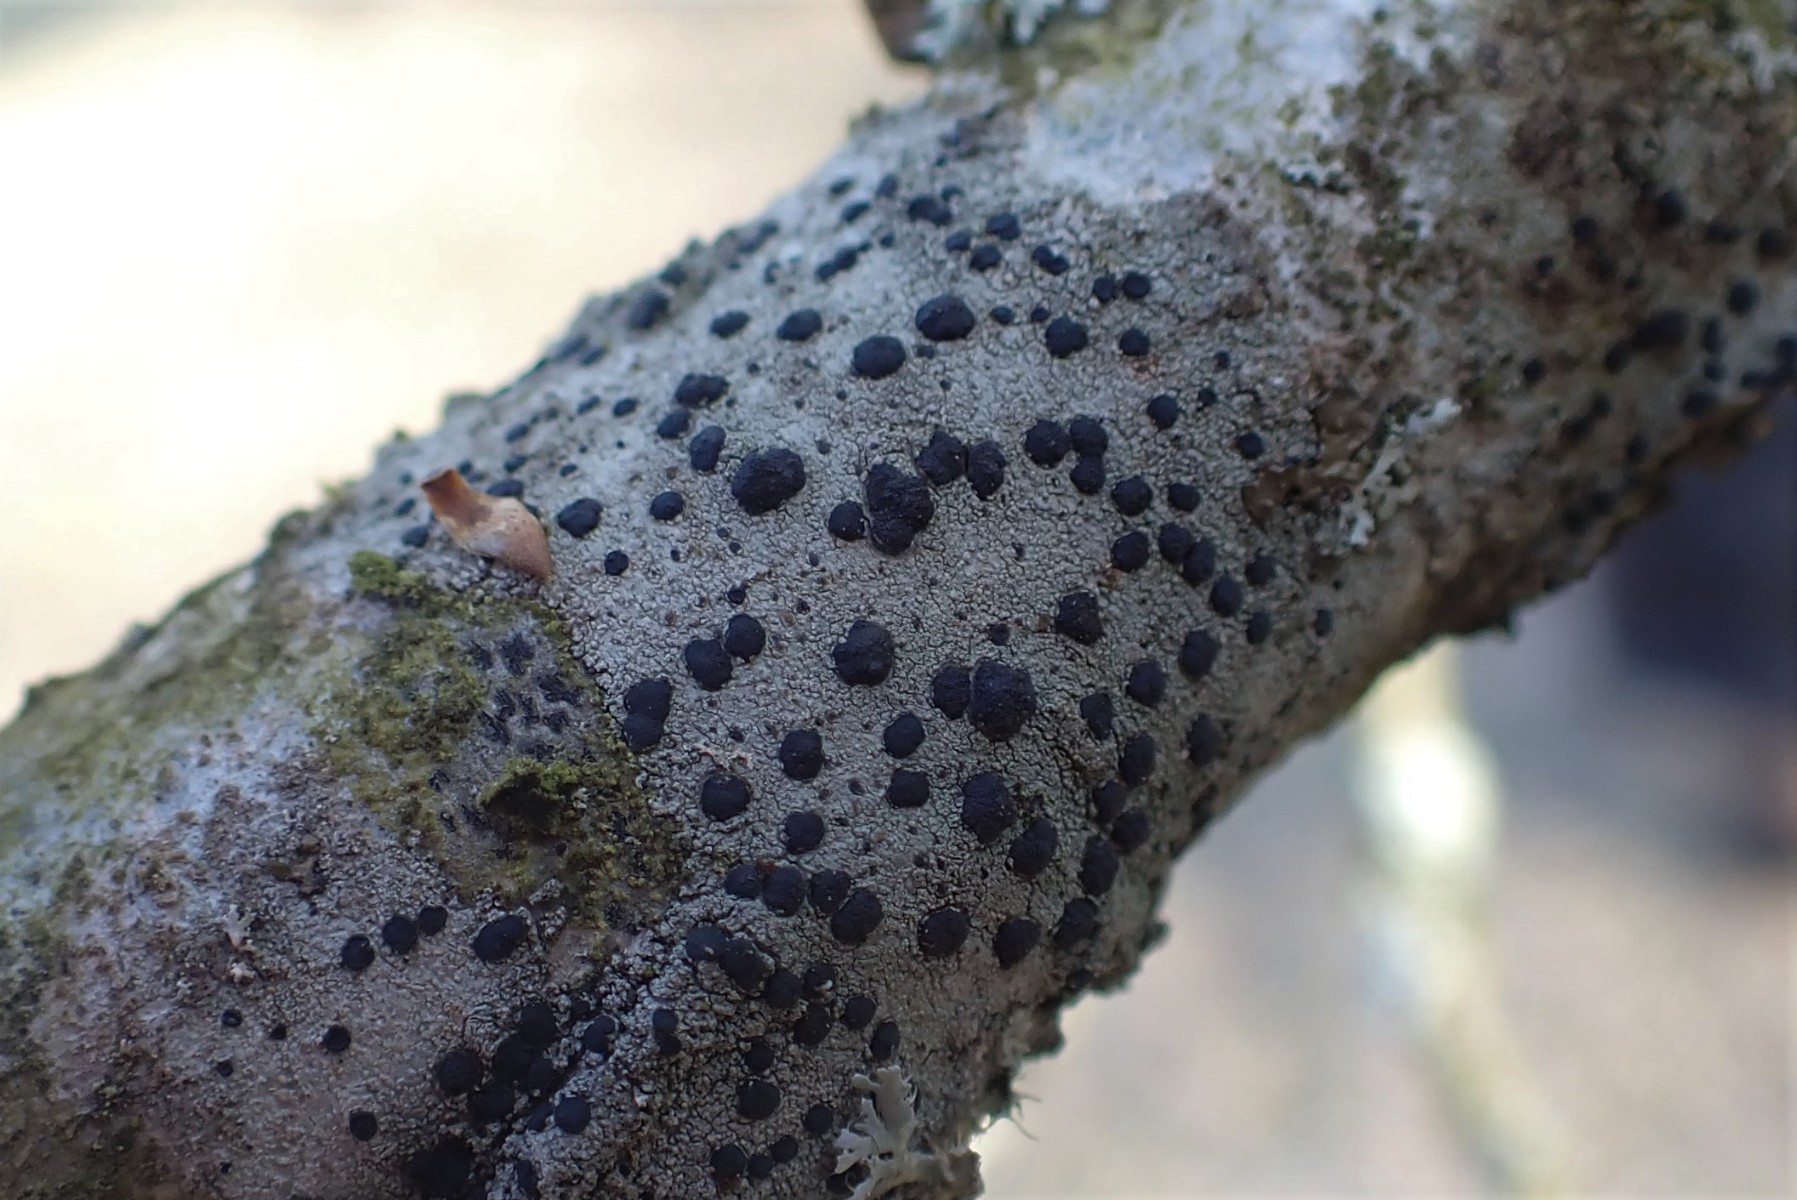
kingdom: Fungi
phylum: Ascomycota
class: Lecanoromycetes
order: Lecanorales
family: Lecanoraceae
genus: Lecidella
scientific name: Lecidella elaeochroma
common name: grågrøn skivelav
